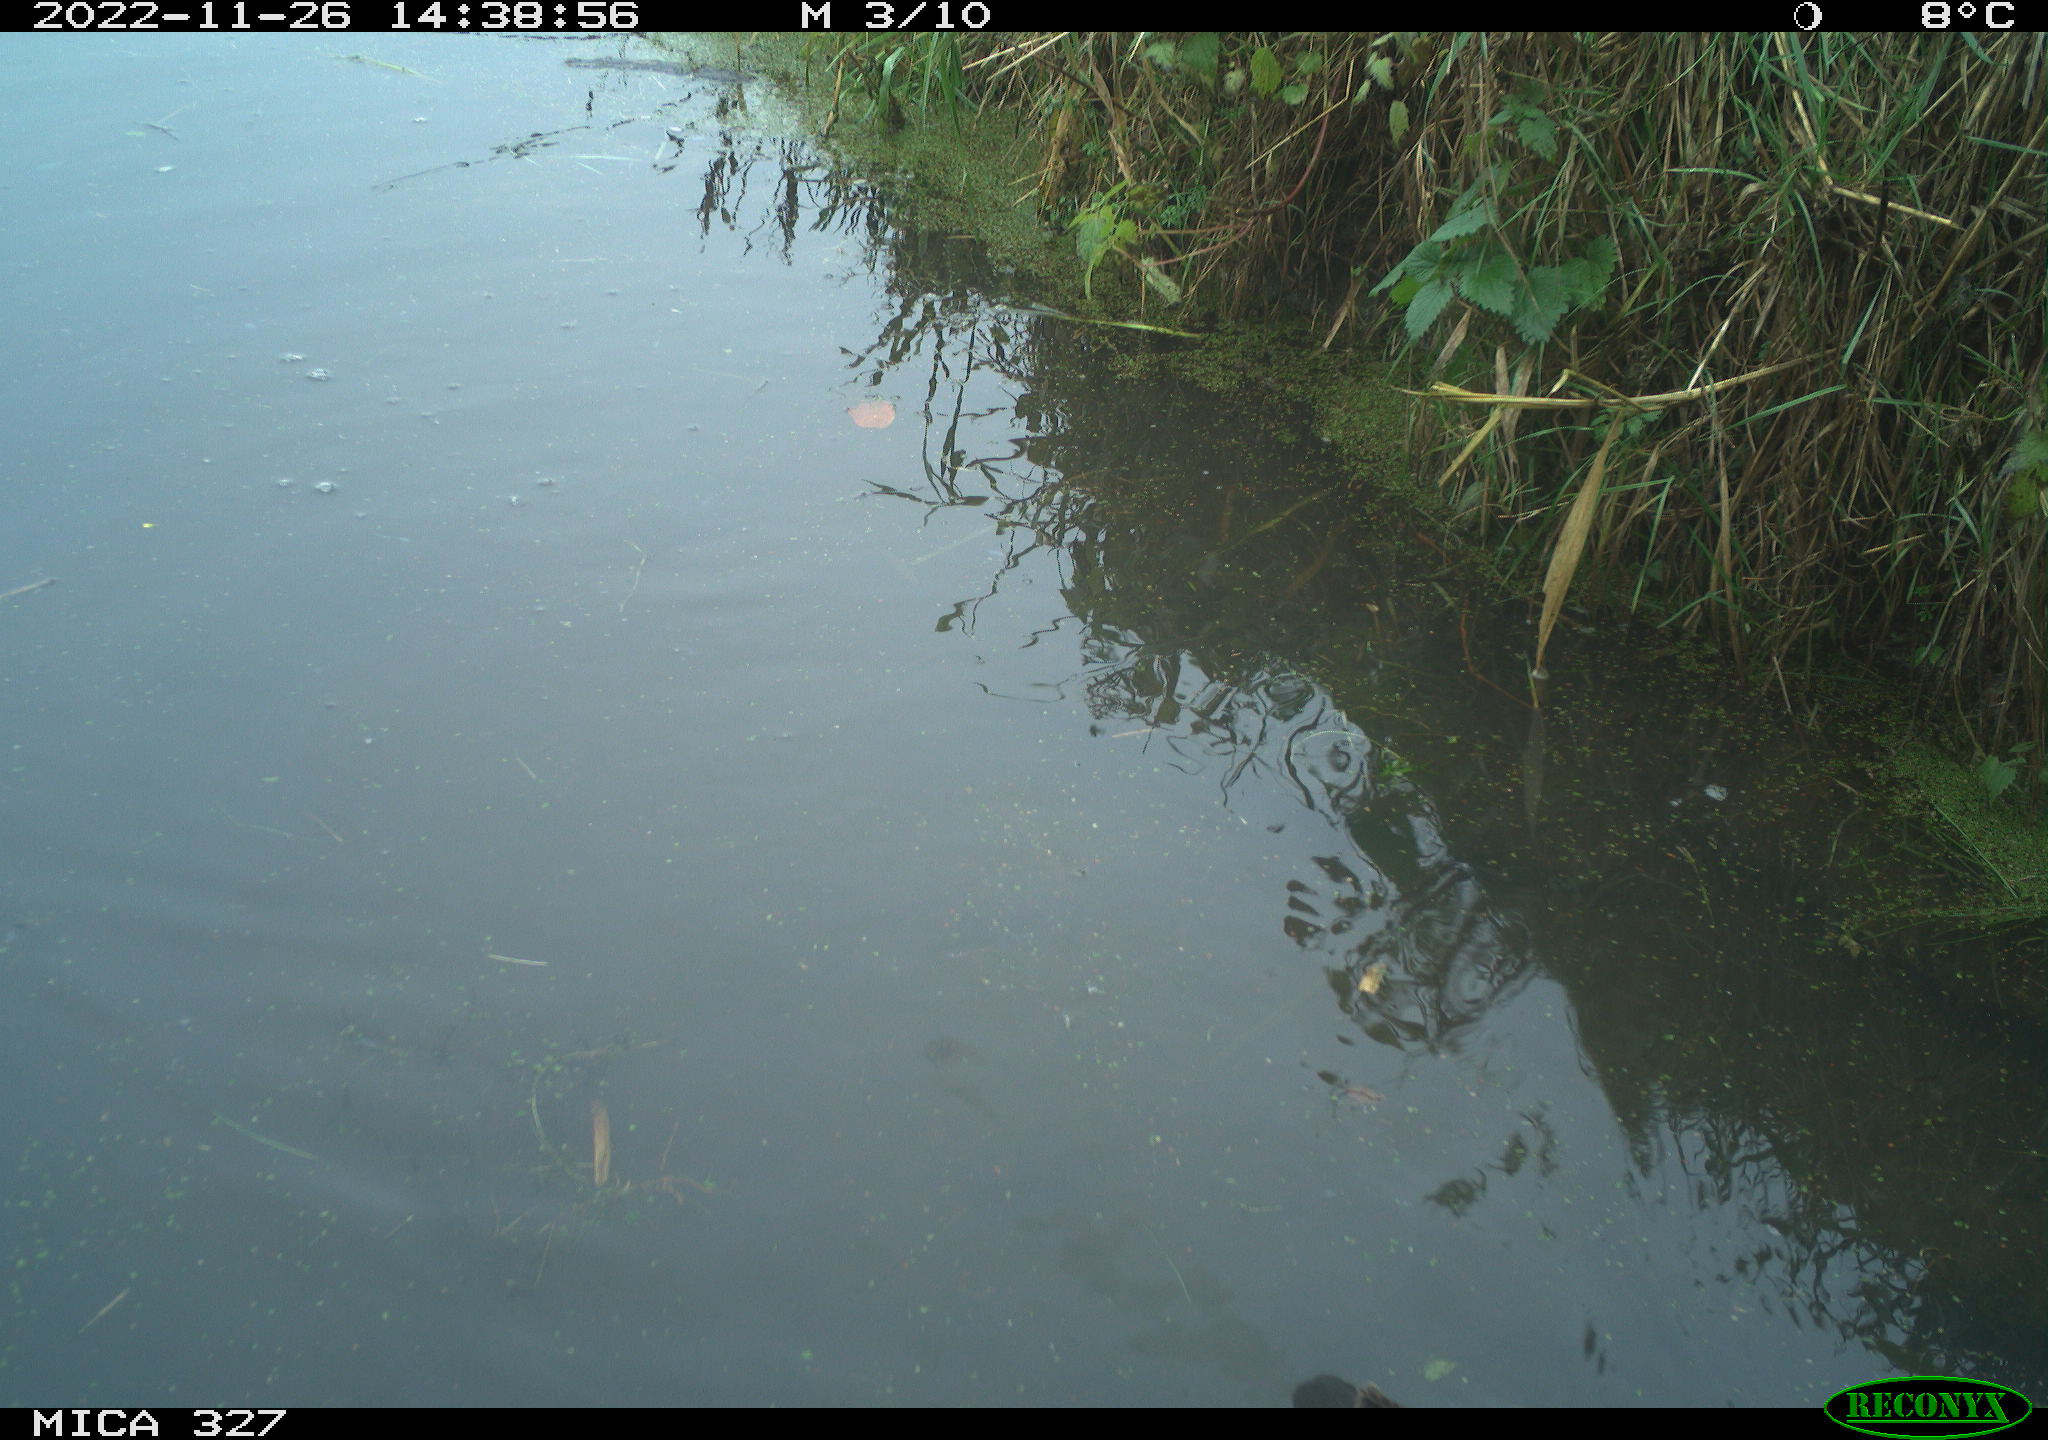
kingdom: Animalia
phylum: Chordata
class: Aves
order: Gruiformes
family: Rallidae
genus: Gallinula
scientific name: Gallinula chloropus
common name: Common moorhen
